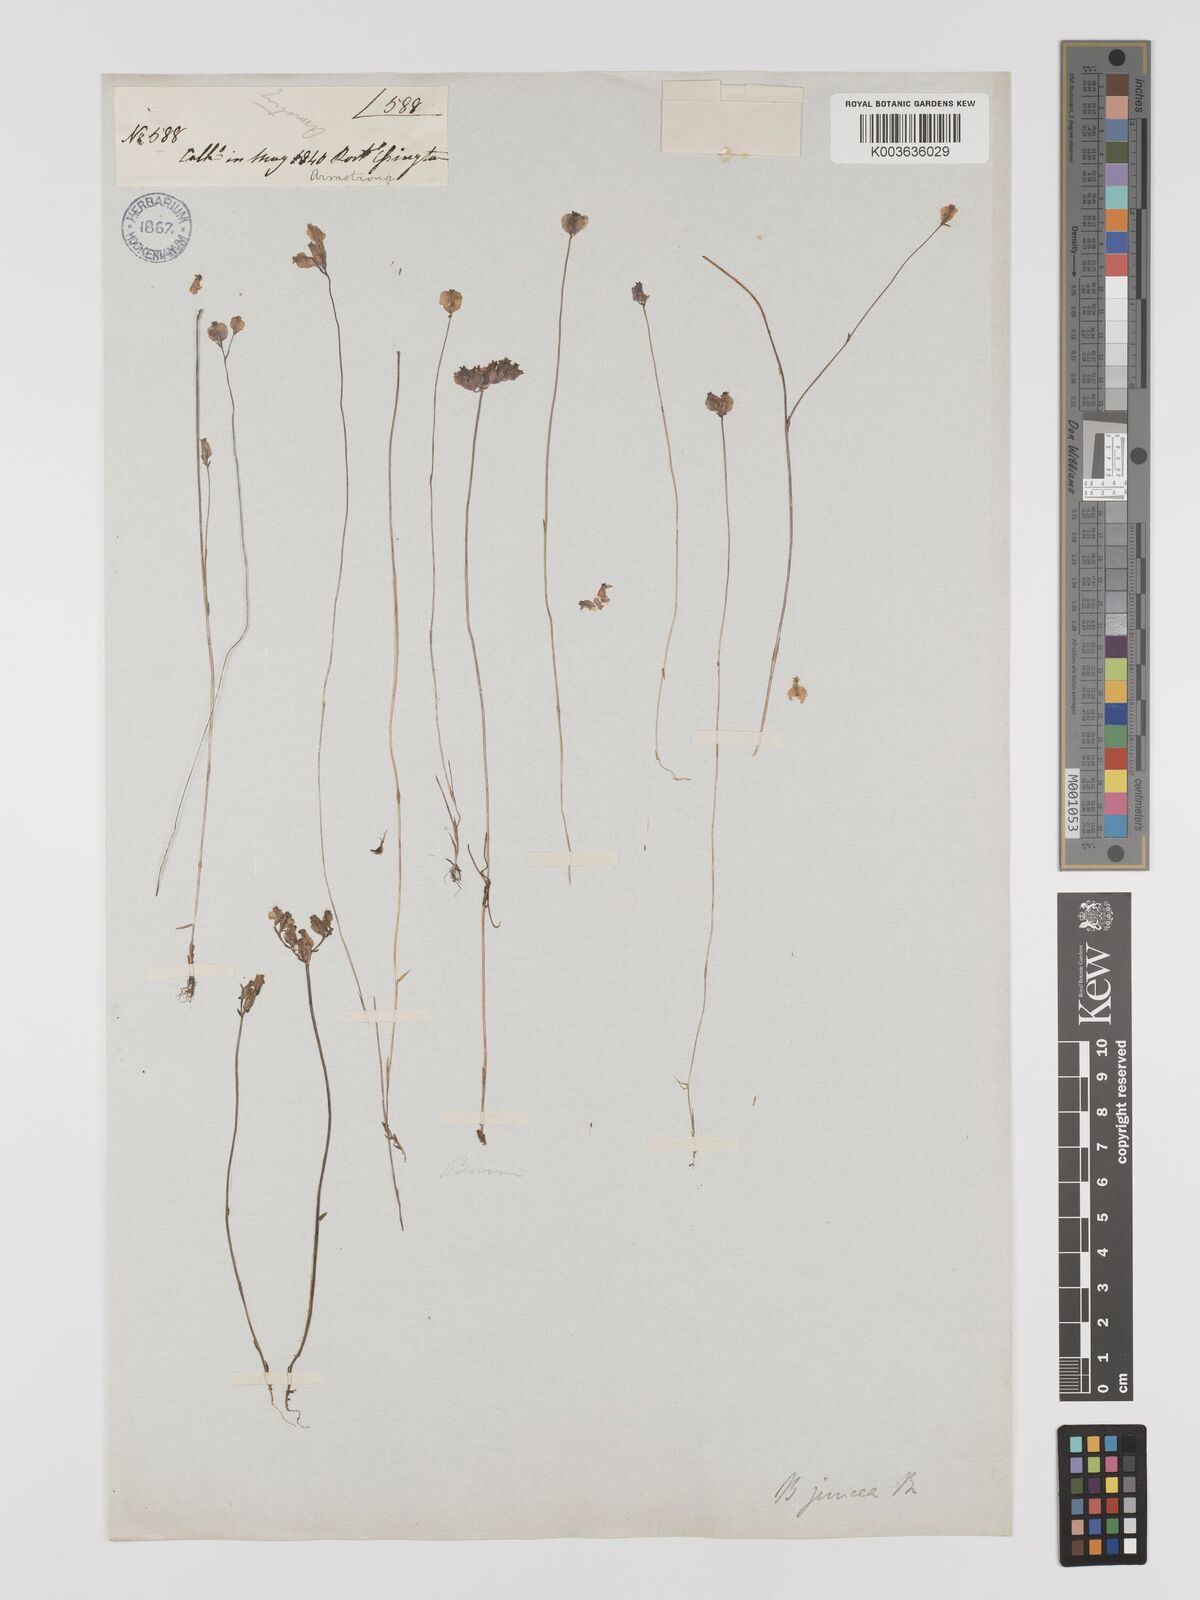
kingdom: Plantae
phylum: Tracheophyta
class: Liliopsida
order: Dioscoreales
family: Burmanniaceae
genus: Burmannia
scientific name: Burmannia juncea
